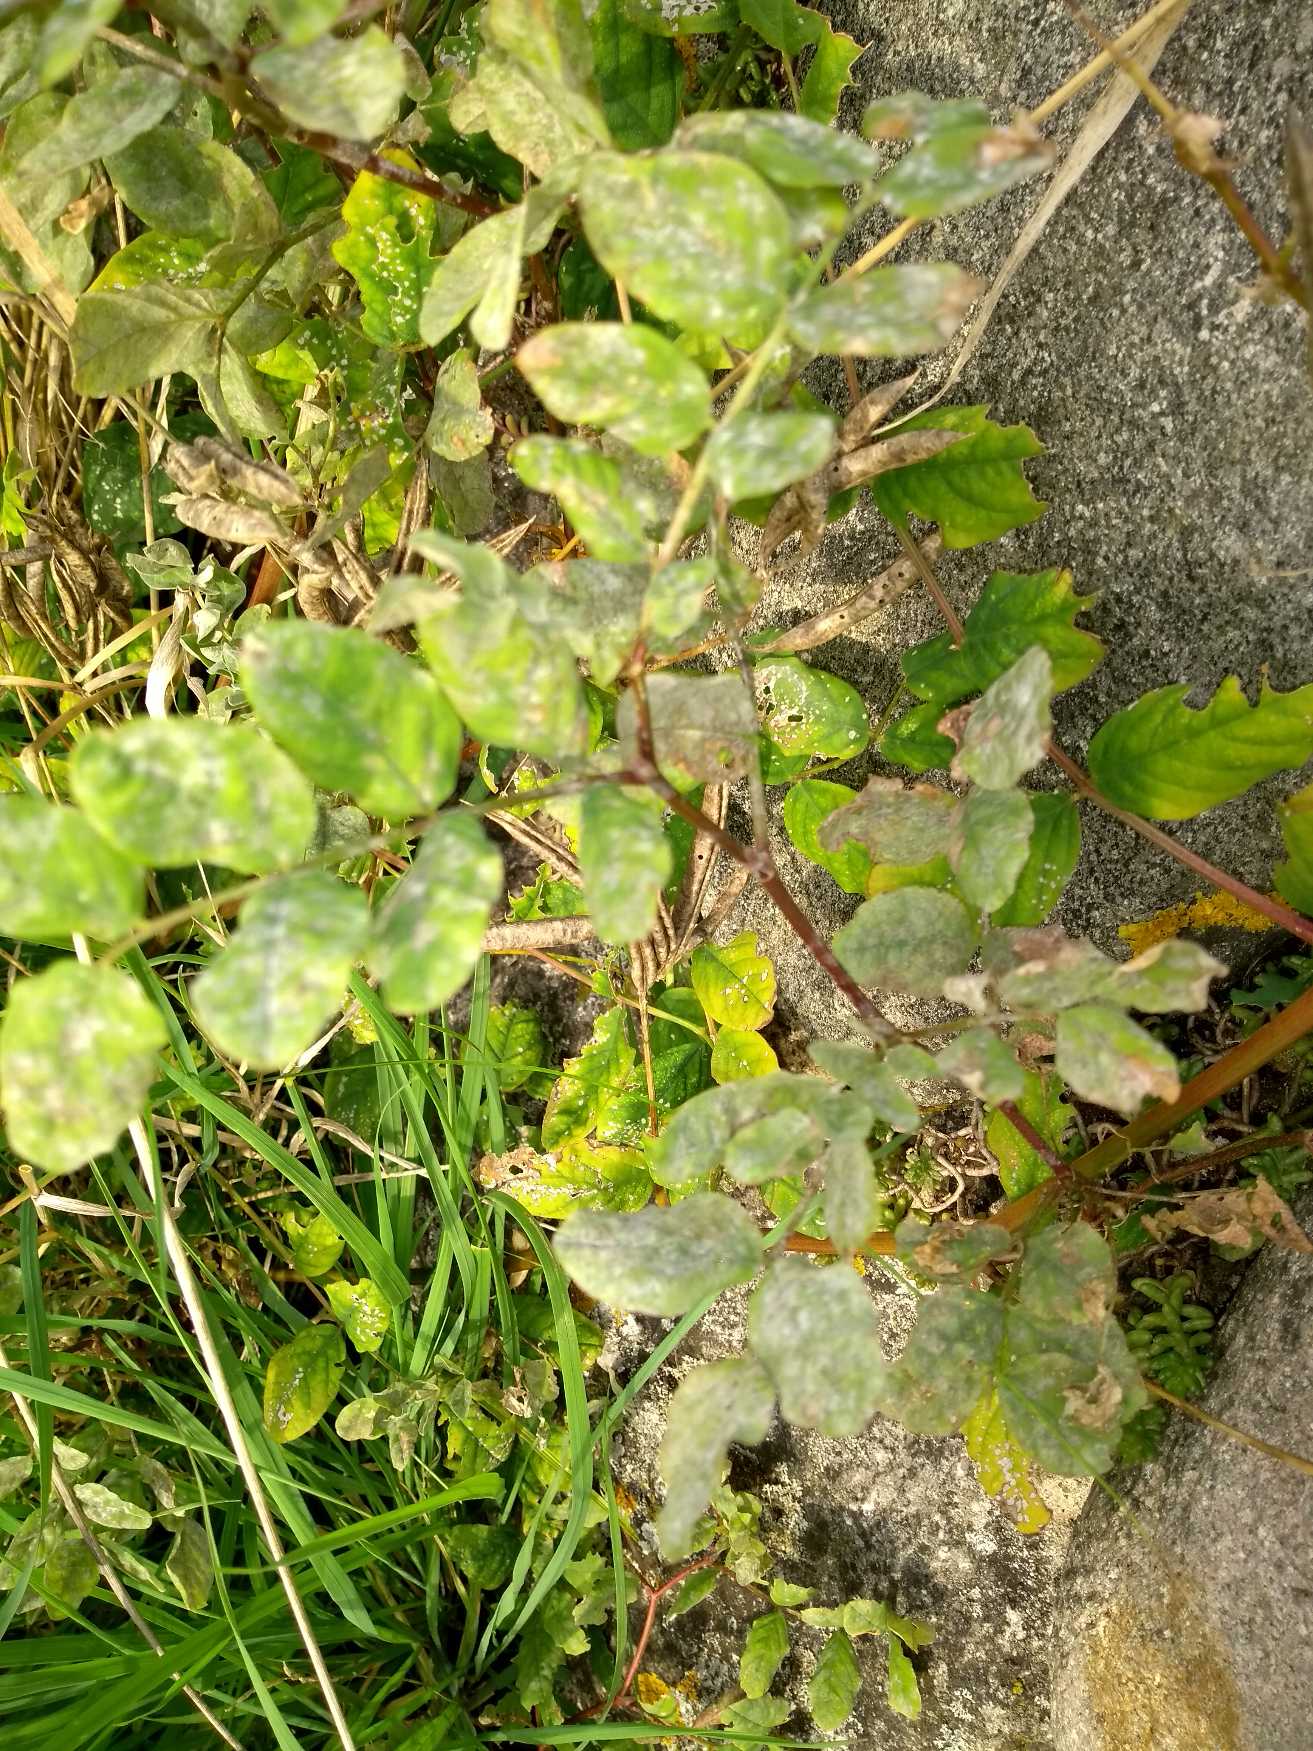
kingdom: Plantae
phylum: Tracheophyta
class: Magnoliopsida
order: Fabales
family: Fabaceae
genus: Astragalus
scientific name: Astragalus glycyphyllos
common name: Sød astragel
